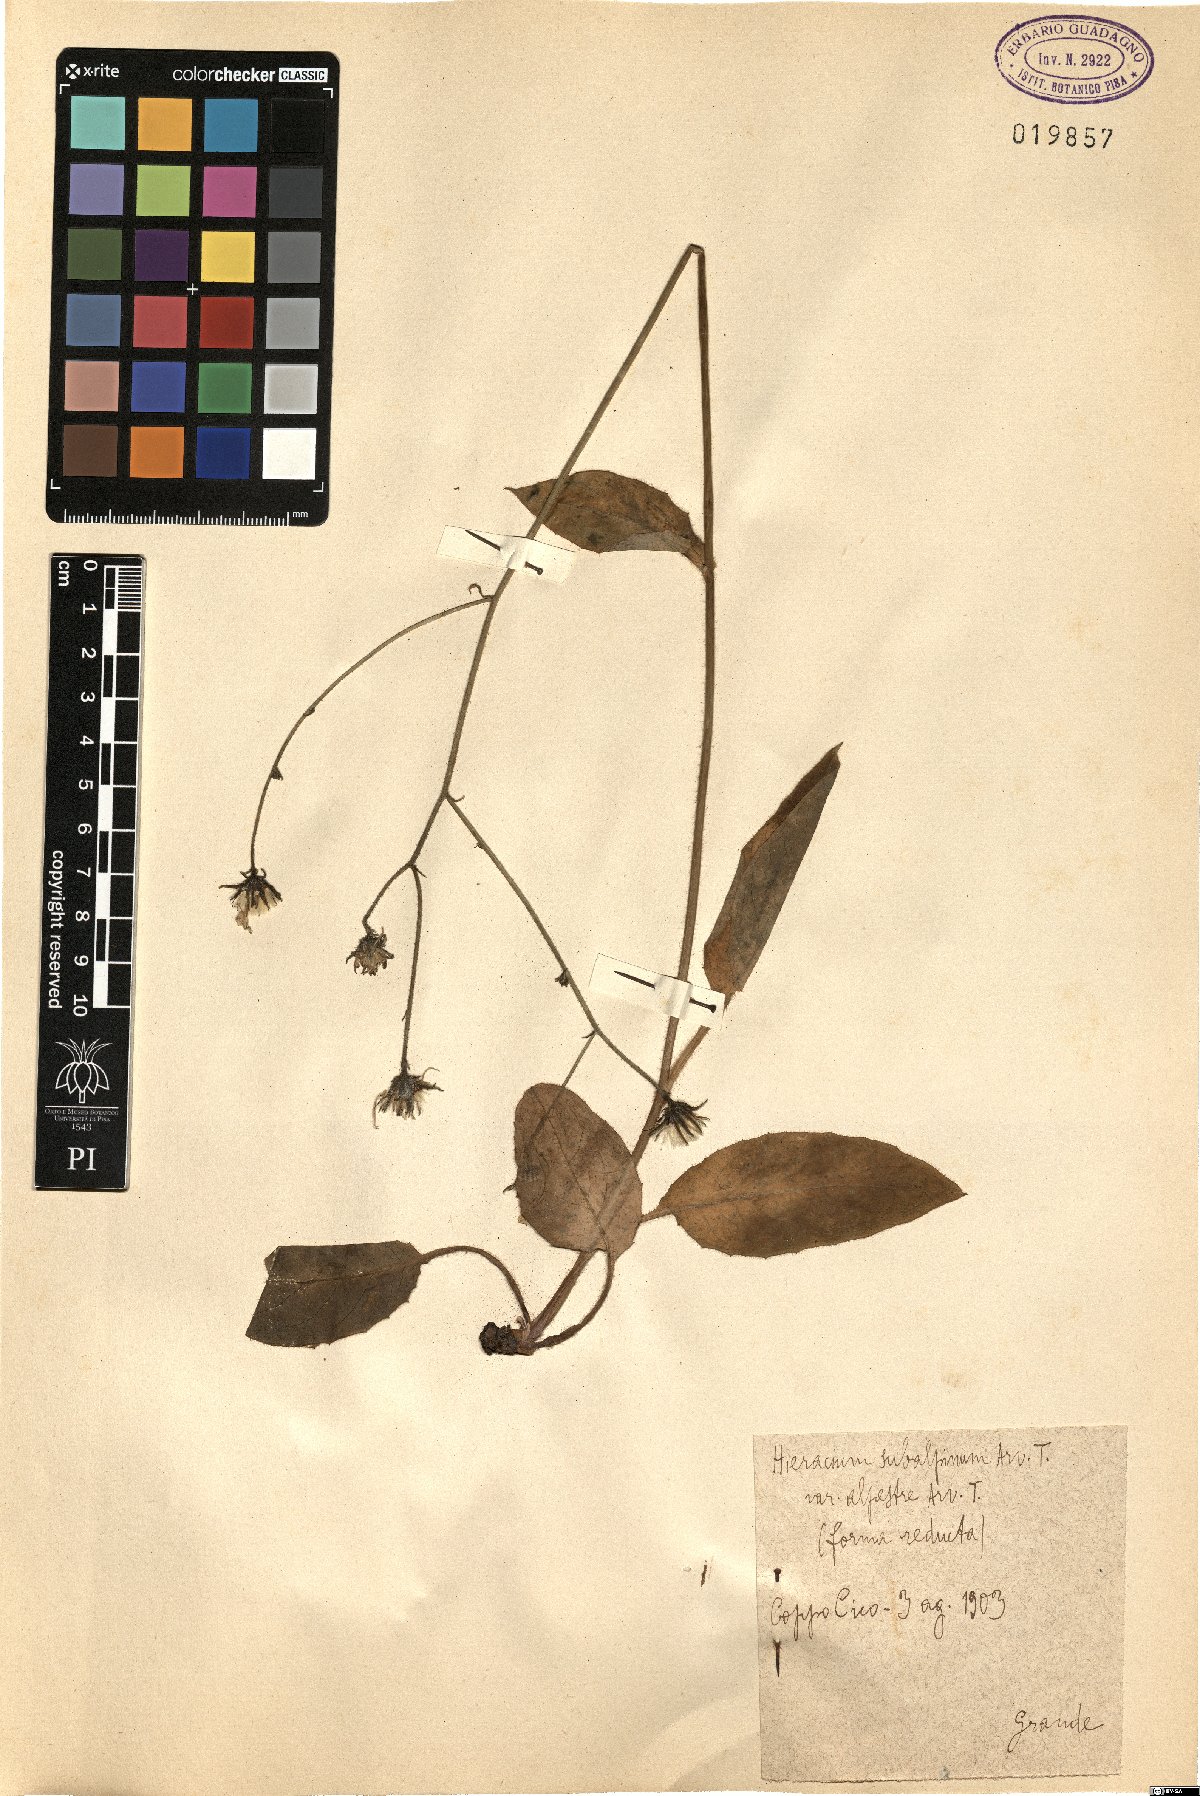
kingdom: Plantae
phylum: Tracheophyta
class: Magnoliopsida
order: Asterales
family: Asteraceae
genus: Hieracium
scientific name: Hieracium umbrosum
